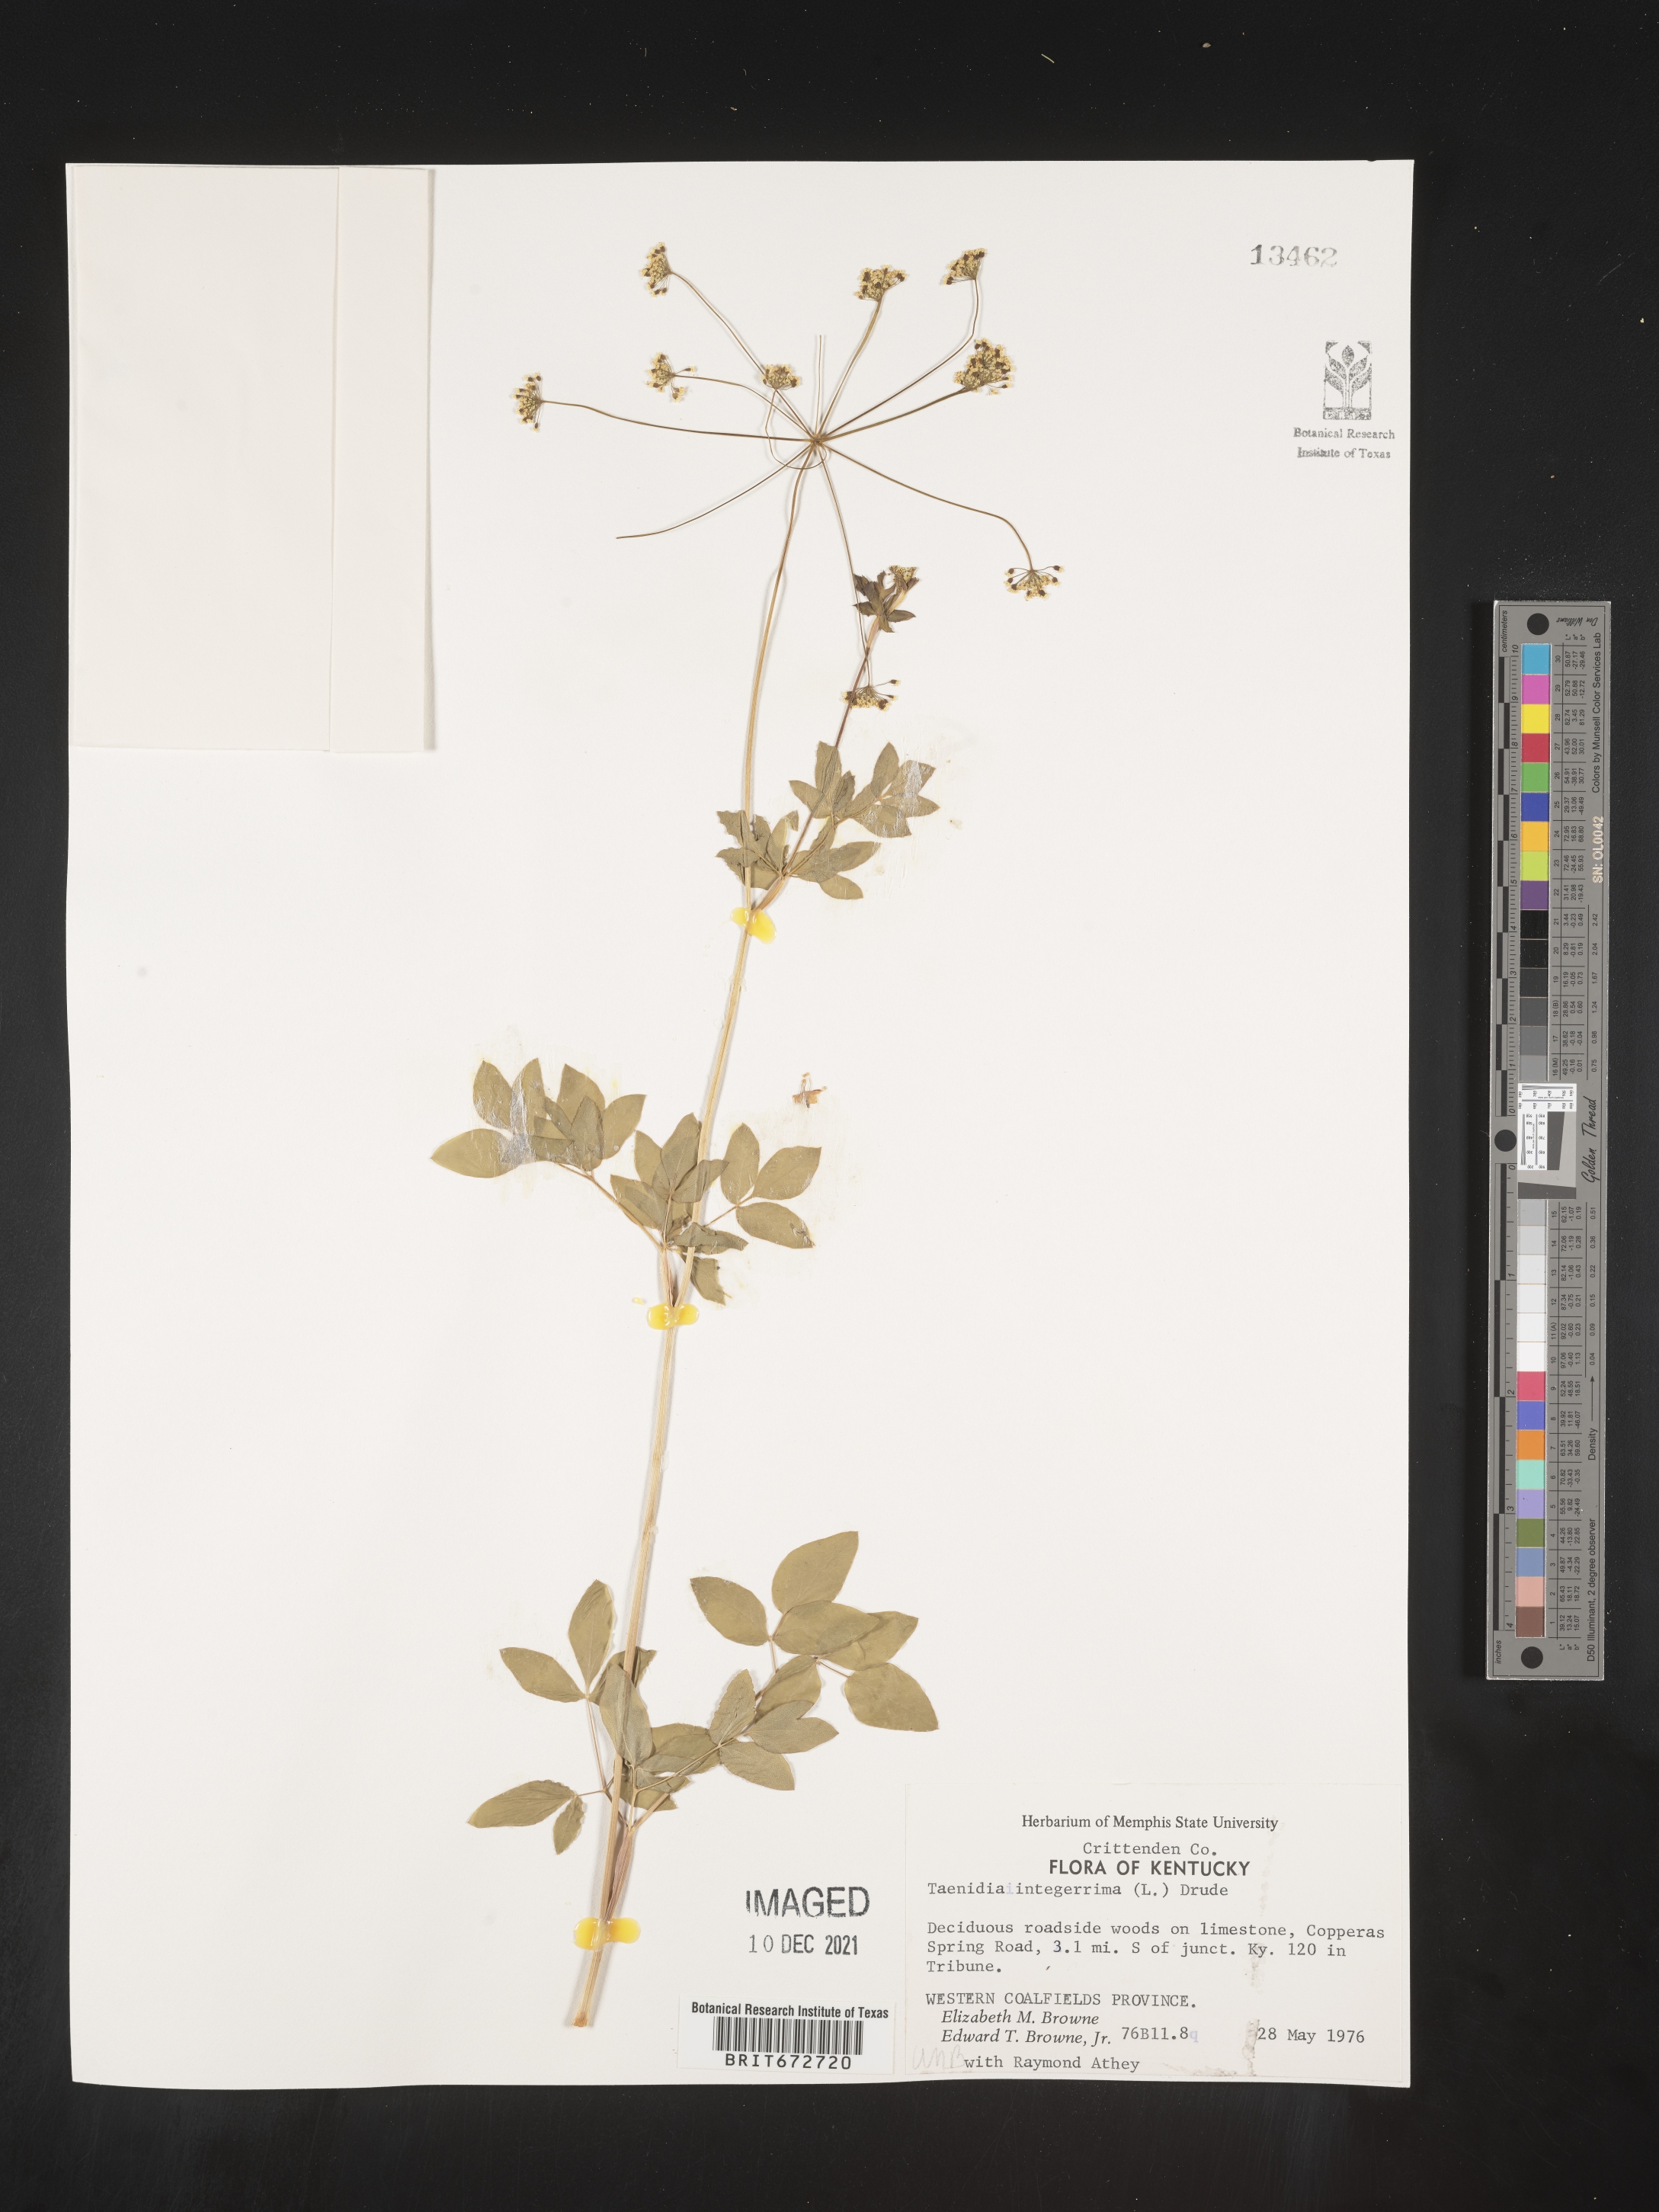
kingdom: Plantae
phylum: Tracheophyta
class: Magnoliopsida
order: Apiales
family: Apiaceae
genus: Taenidia
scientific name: Taenidia
